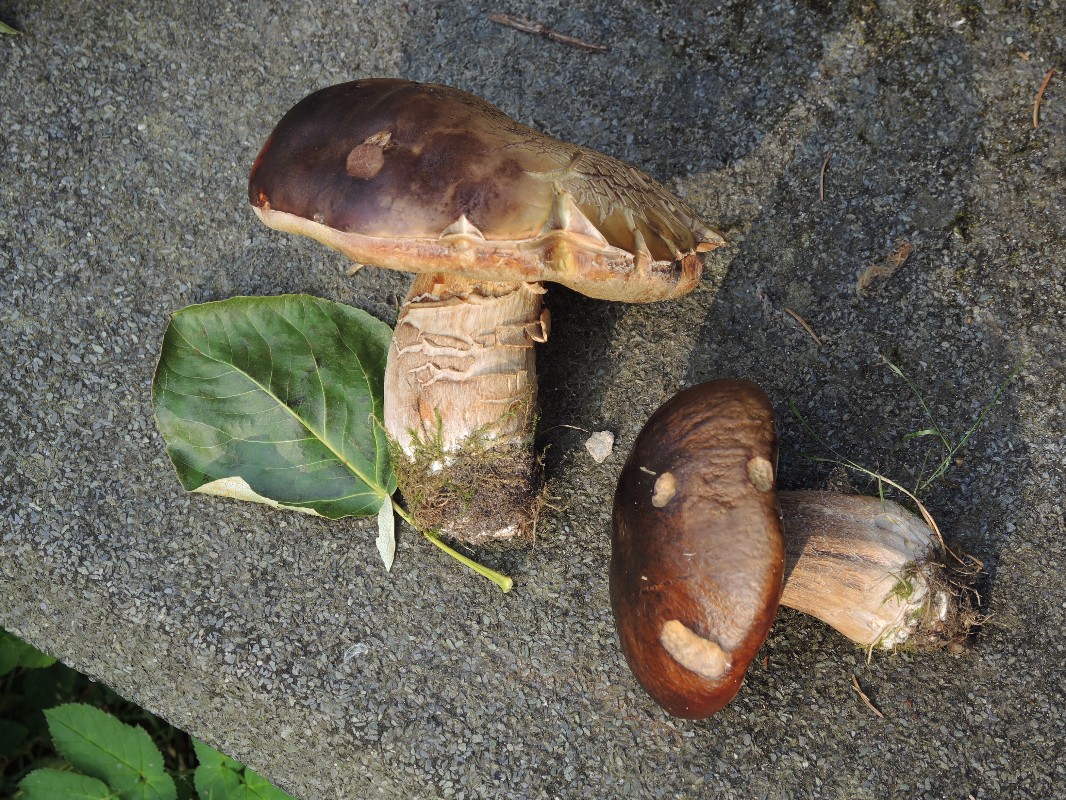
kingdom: Fungi
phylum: Basidiomycota
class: Agaricomycetes
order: Boletales
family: Boletaceae
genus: Boletus
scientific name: Boletus edulis
